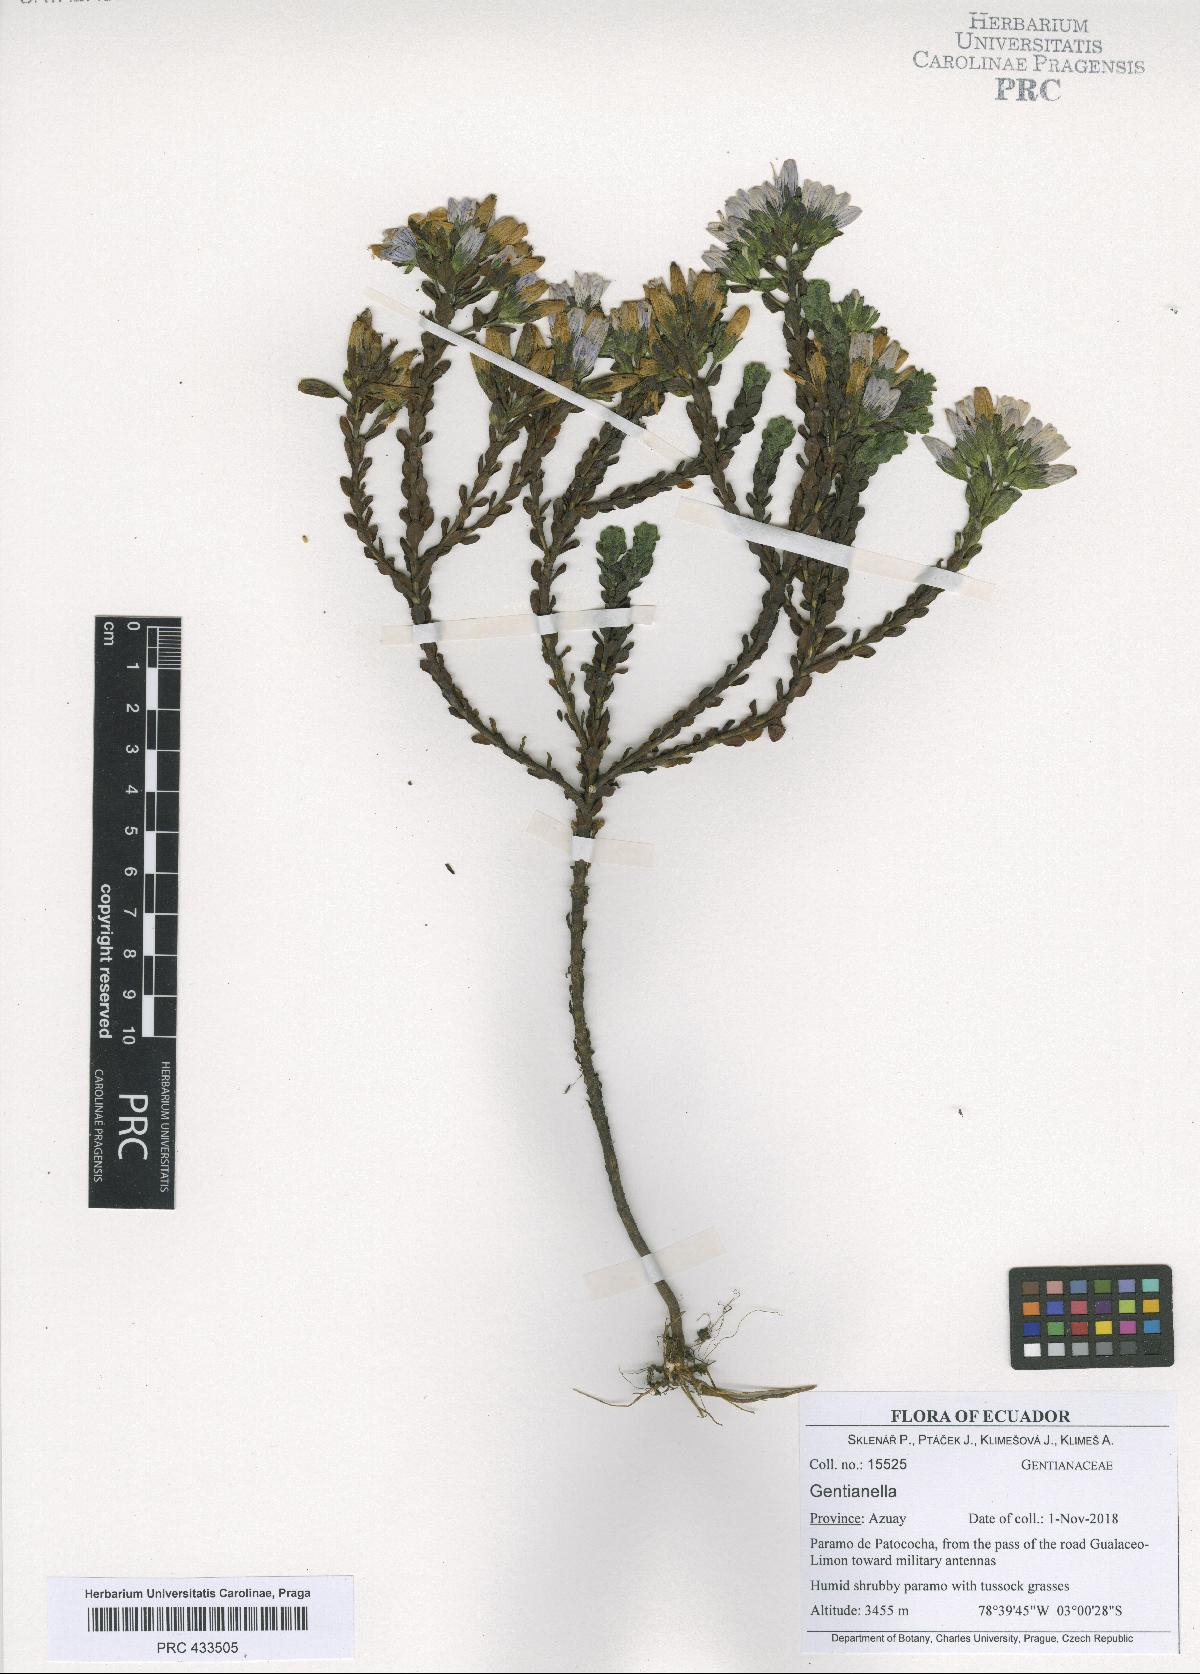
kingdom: Plantae
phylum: Tracheophyta
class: Magnoliopsida
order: Gentianales
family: Gentianaceae
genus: Gentianella
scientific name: Gentianella rapunculoides
